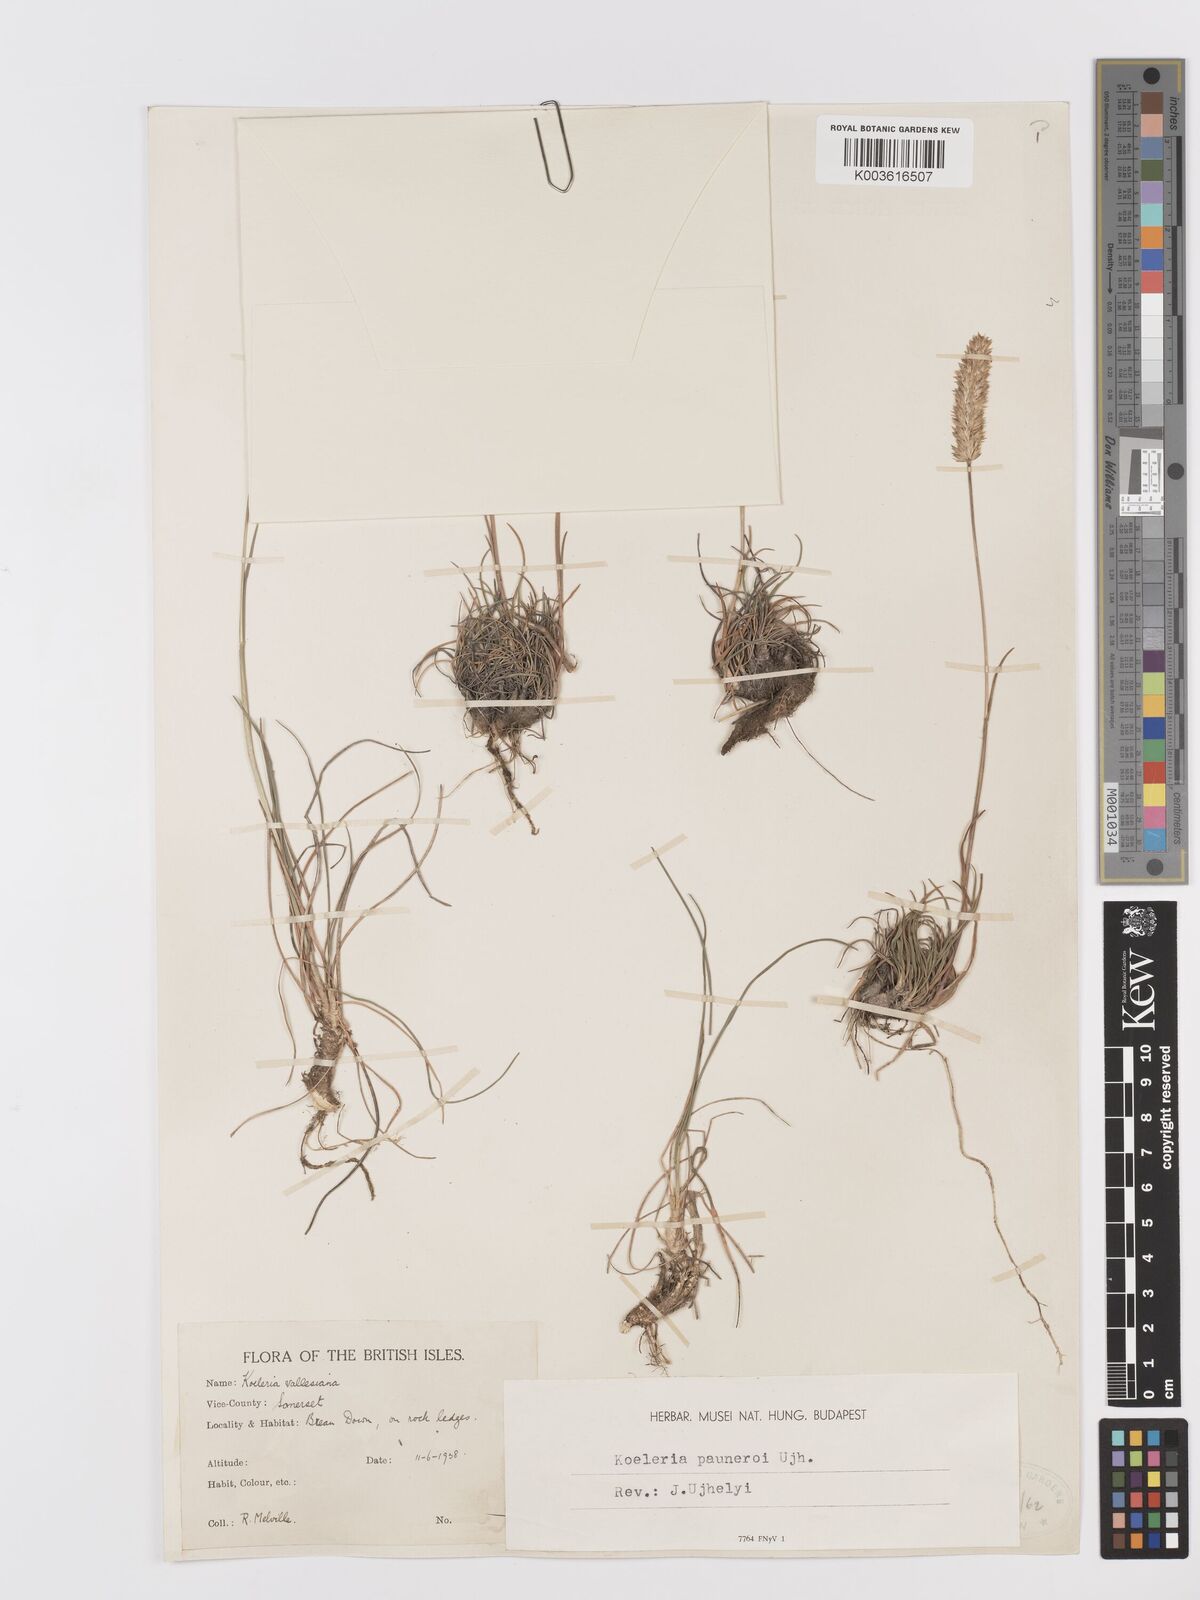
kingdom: Plantae
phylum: Tracheophyta
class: Liliopsida
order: Poales
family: Poaceae
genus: Koeleria
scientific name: Koeleria vallesiana
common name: Somerset hair-grass
